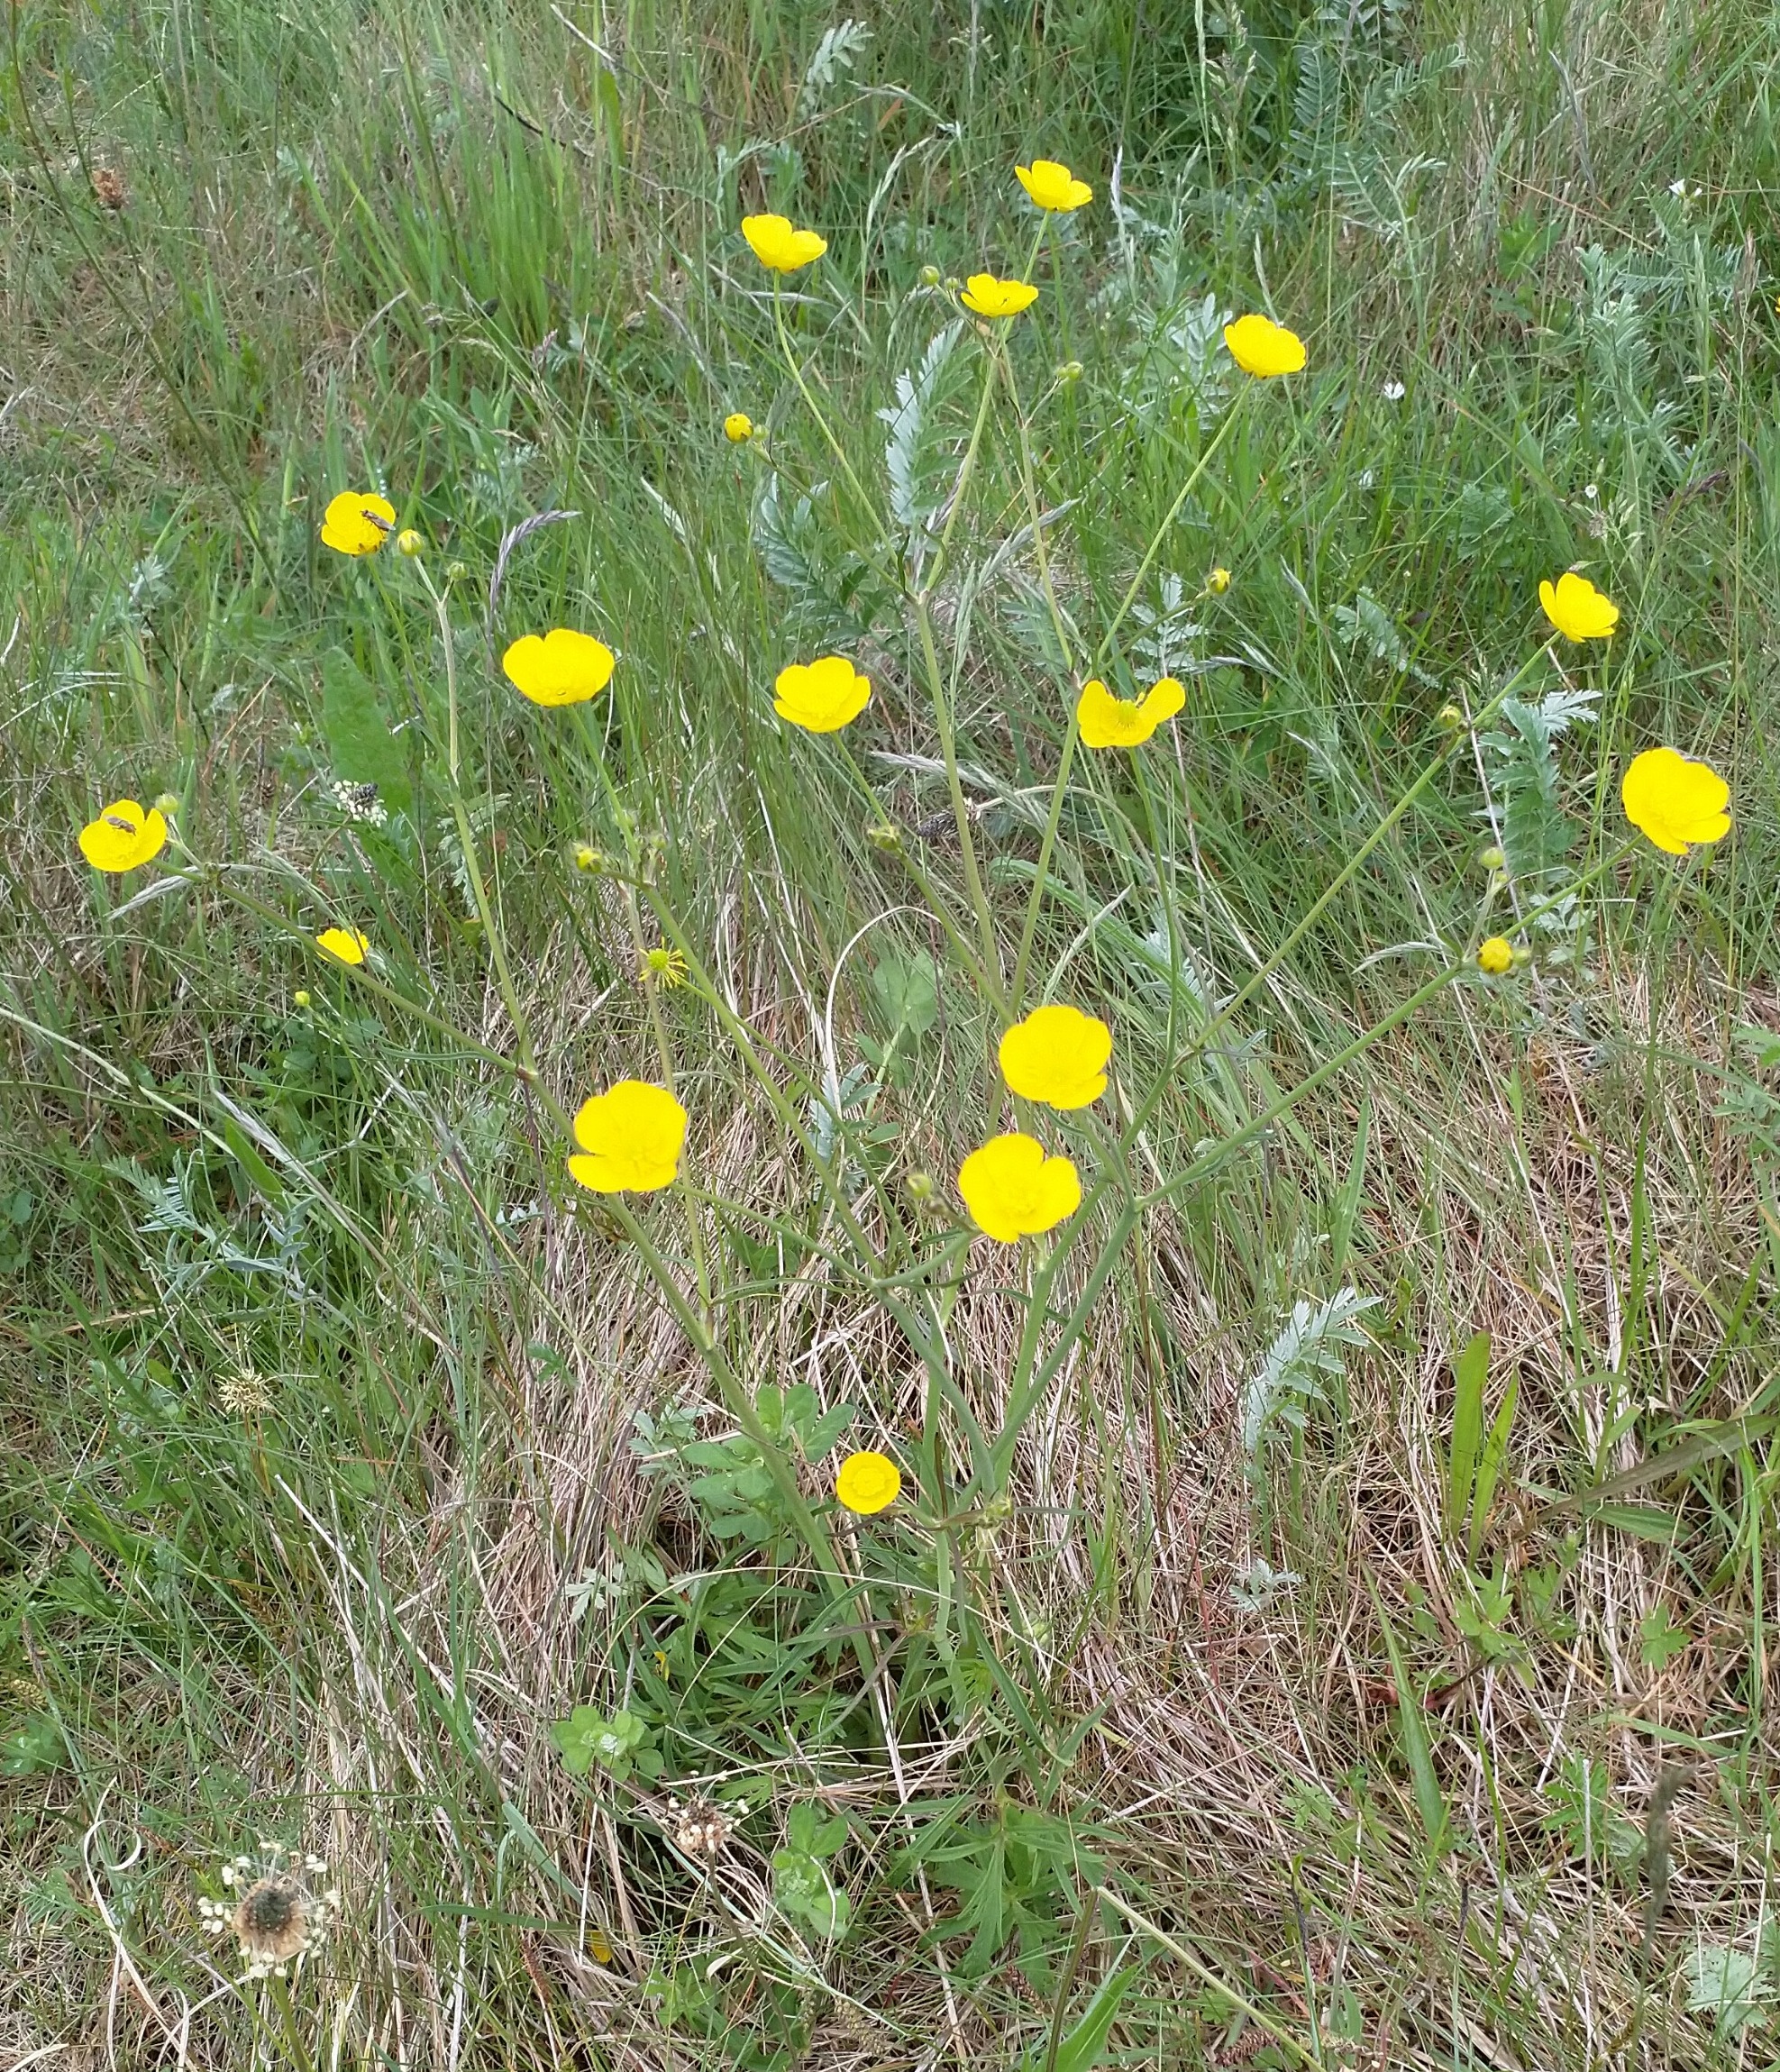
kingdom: Plantae
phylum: Tracheophyta
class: Magnoliopsida
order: Ranunculales
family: Ranunculaceae
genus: Ranunculus
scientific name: Ranunculus acris
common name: Bidende ranunkel
